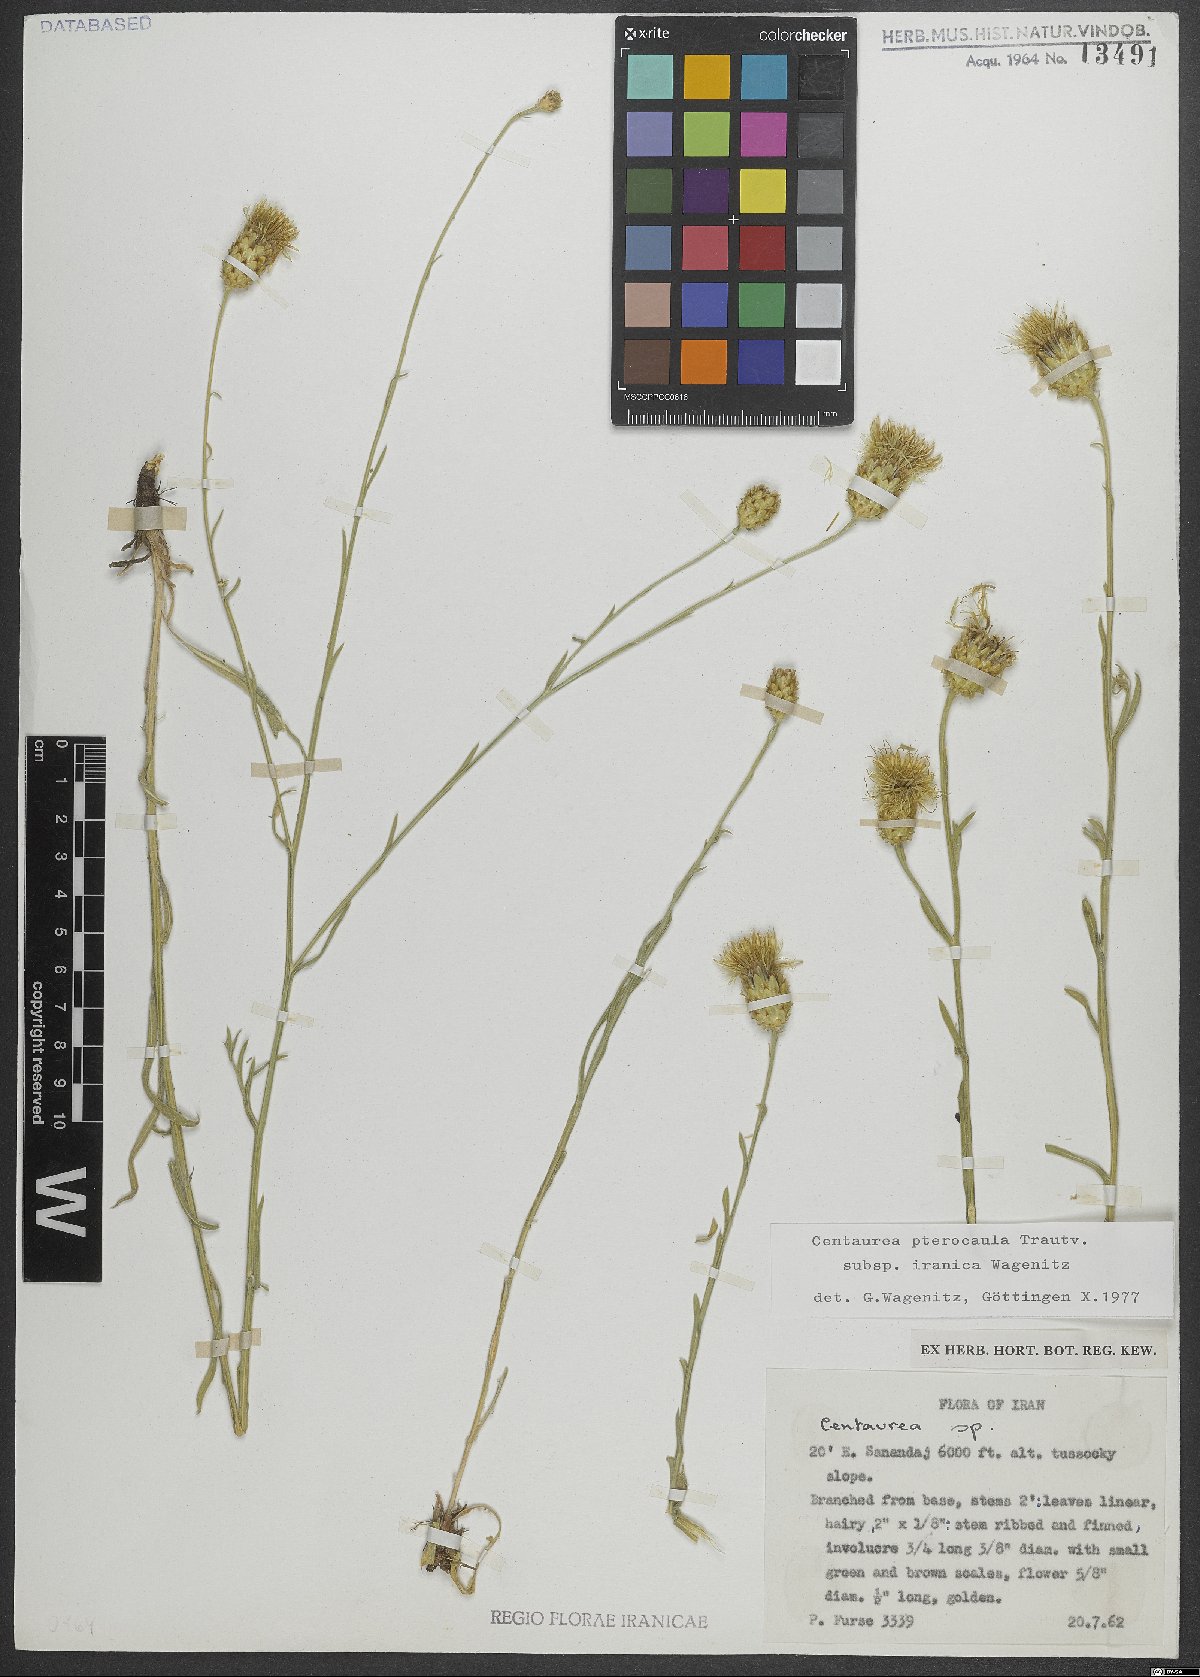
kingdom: Plantae
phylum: Tracheophyta
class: Magnoliopsida
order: Asterales
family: Asteraceae
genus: Centaurea
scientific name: Centaurea pterocaula
